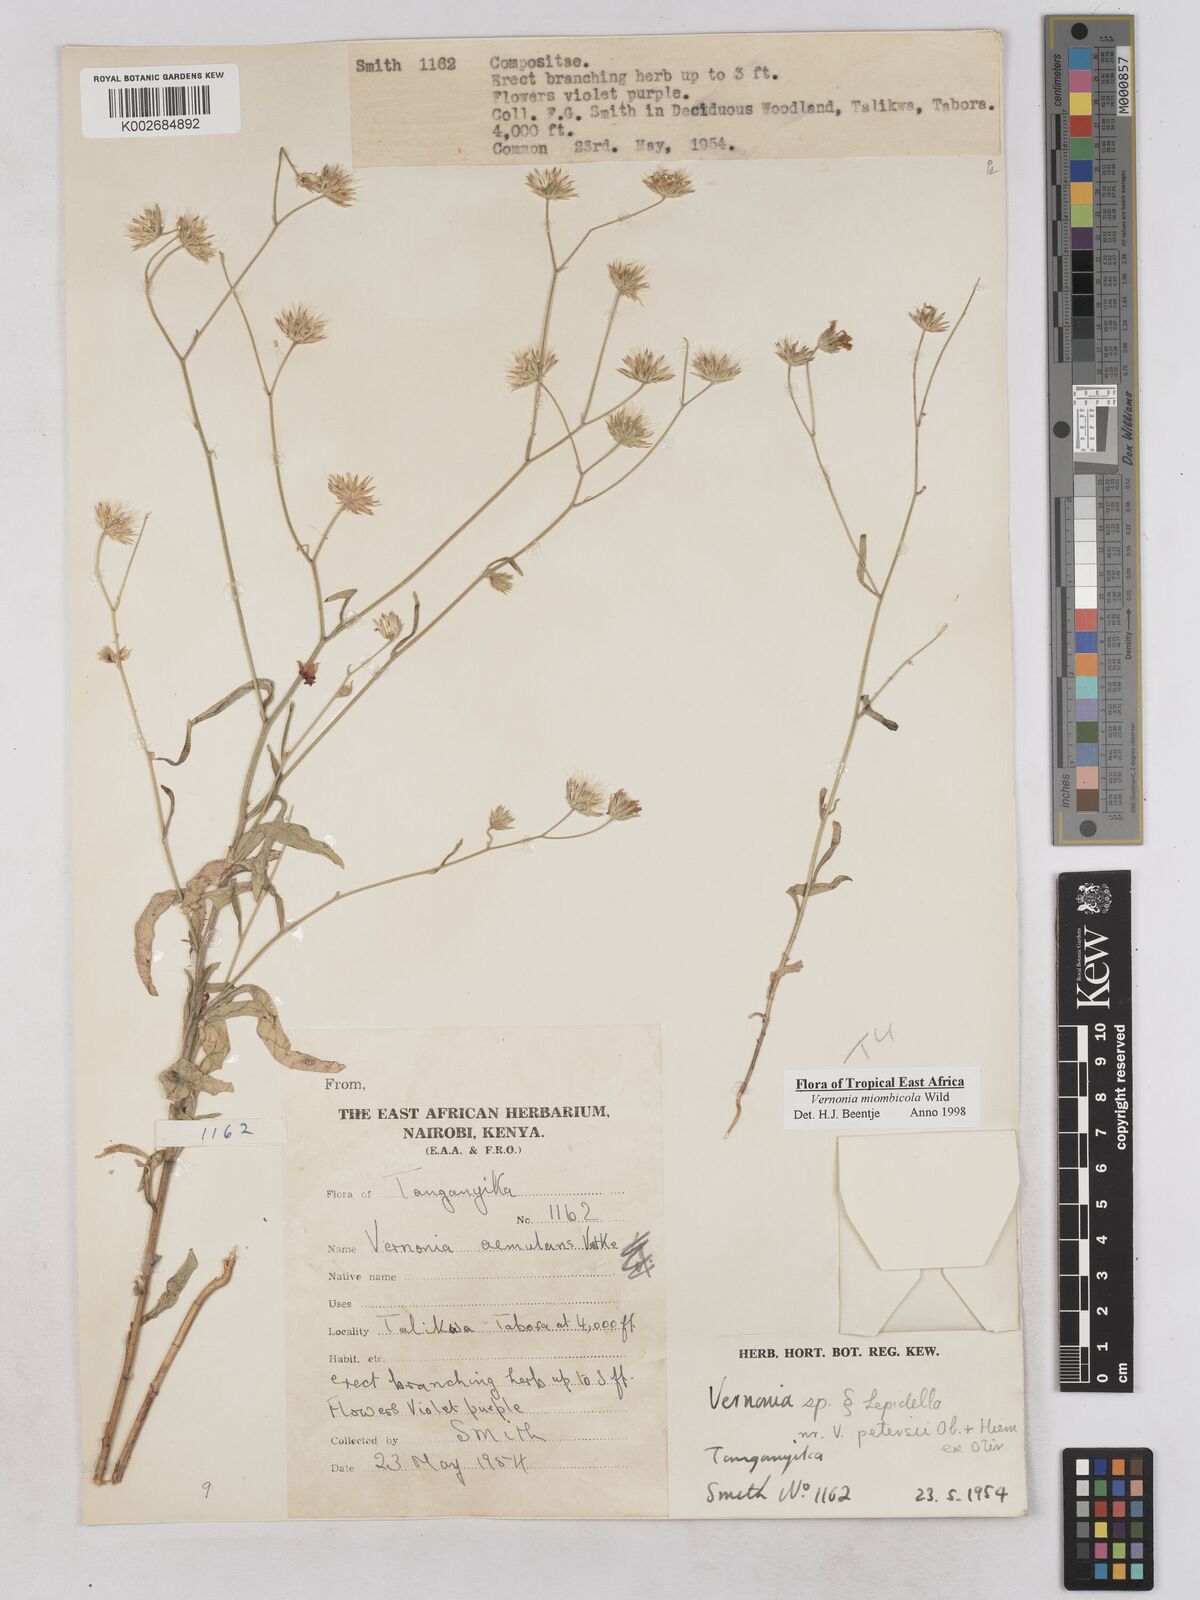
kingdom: Plantae
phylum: Tracheophyta
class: Magnoliopsida
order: Asterales
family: Asteraceae
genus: Vernonia
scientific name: Vernonia miombicola
